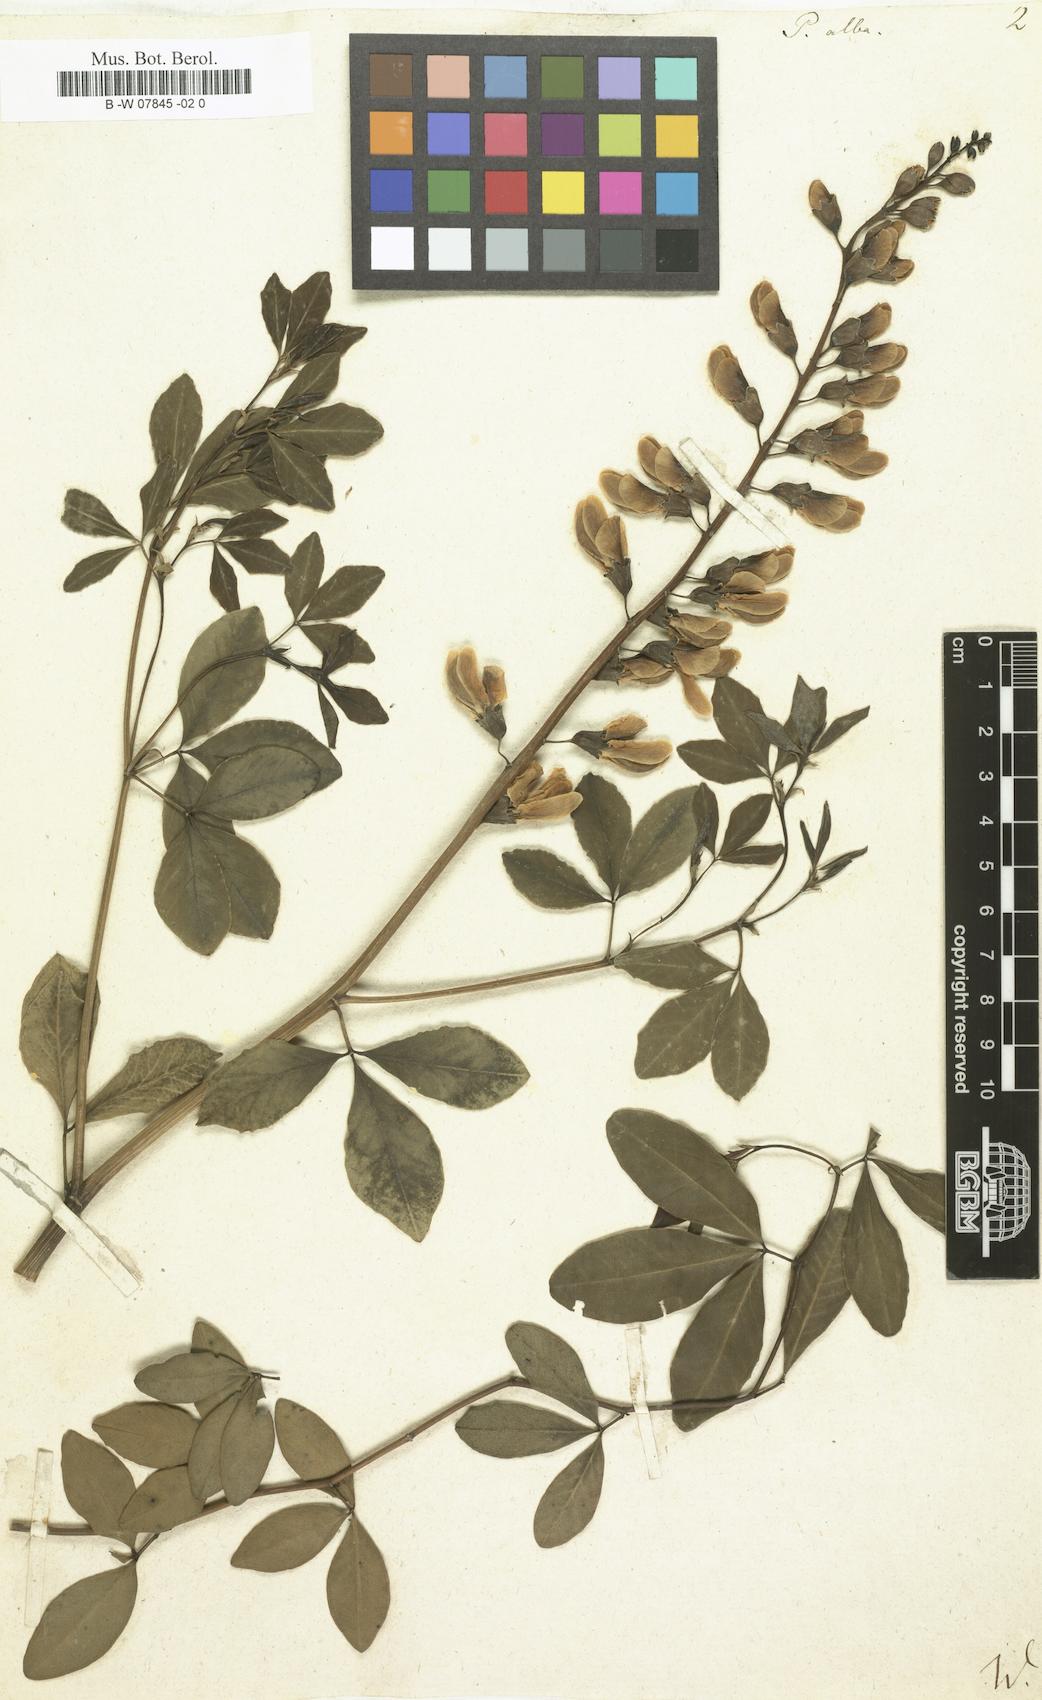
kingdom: Plantae
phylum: Tracheophyta
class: Magnoliopsida
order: Fabales
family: Fabaceae
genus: Baptisia
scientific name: Baptisia alba
